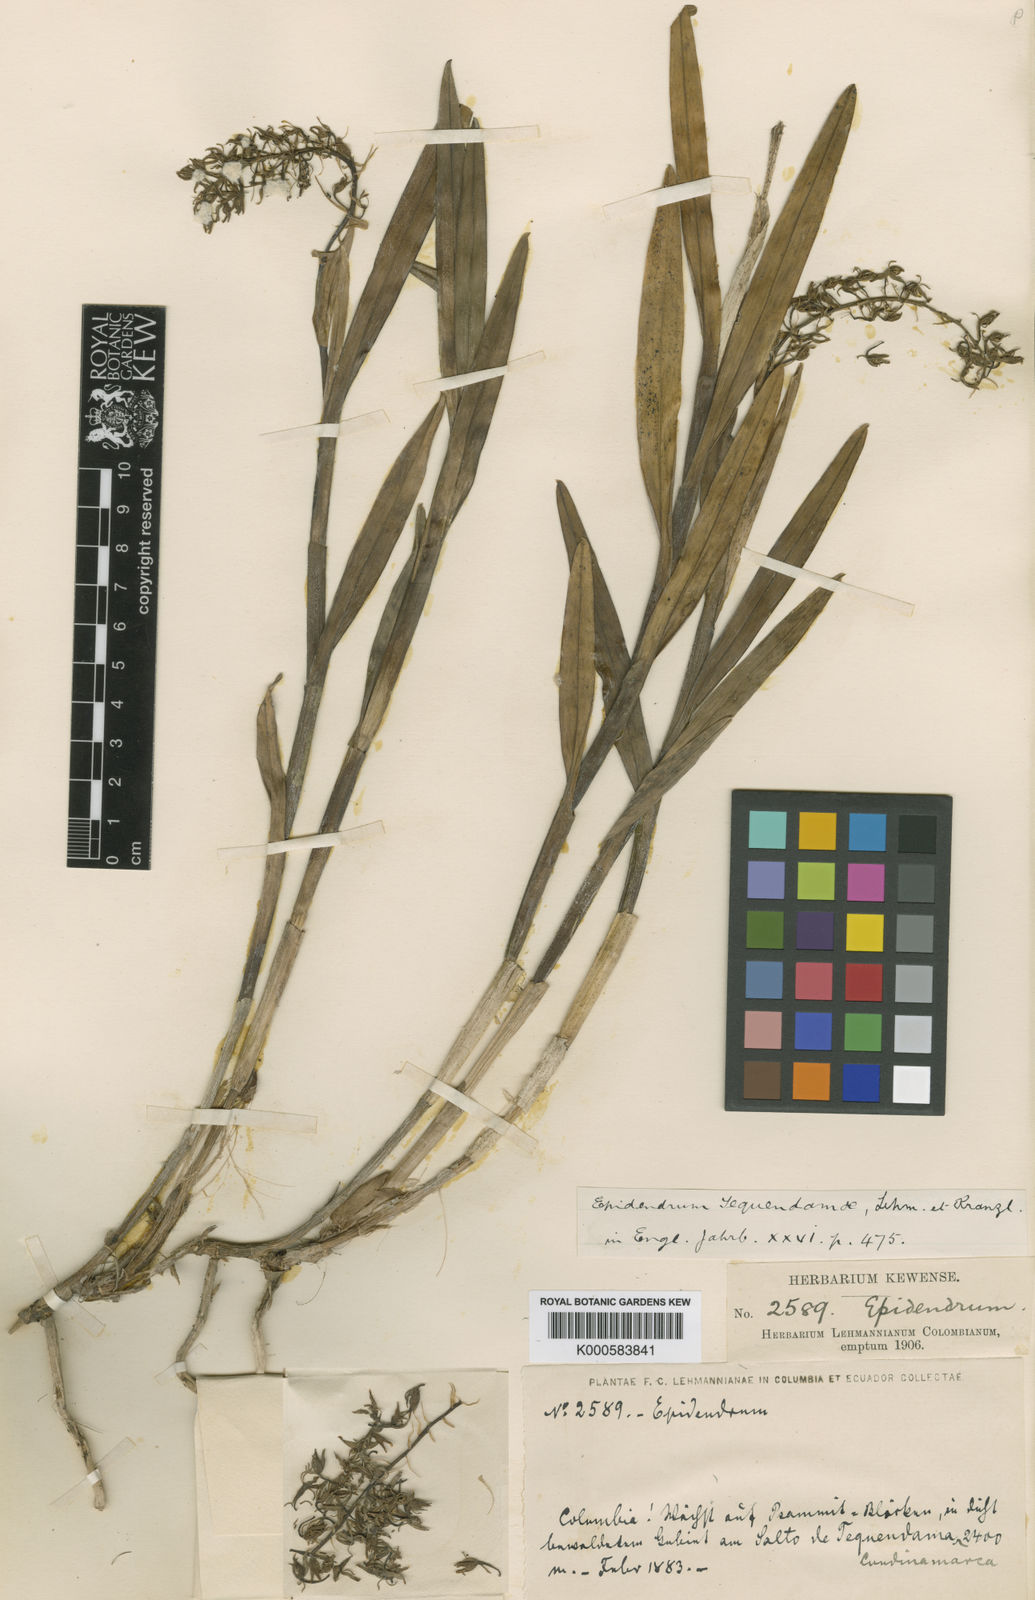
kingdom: Plantae
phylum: Tracheophyta
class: Liliopsida
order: Asparagales
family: Orchidaceae
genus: Epidendrum
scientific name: Epidendrum cornutum
